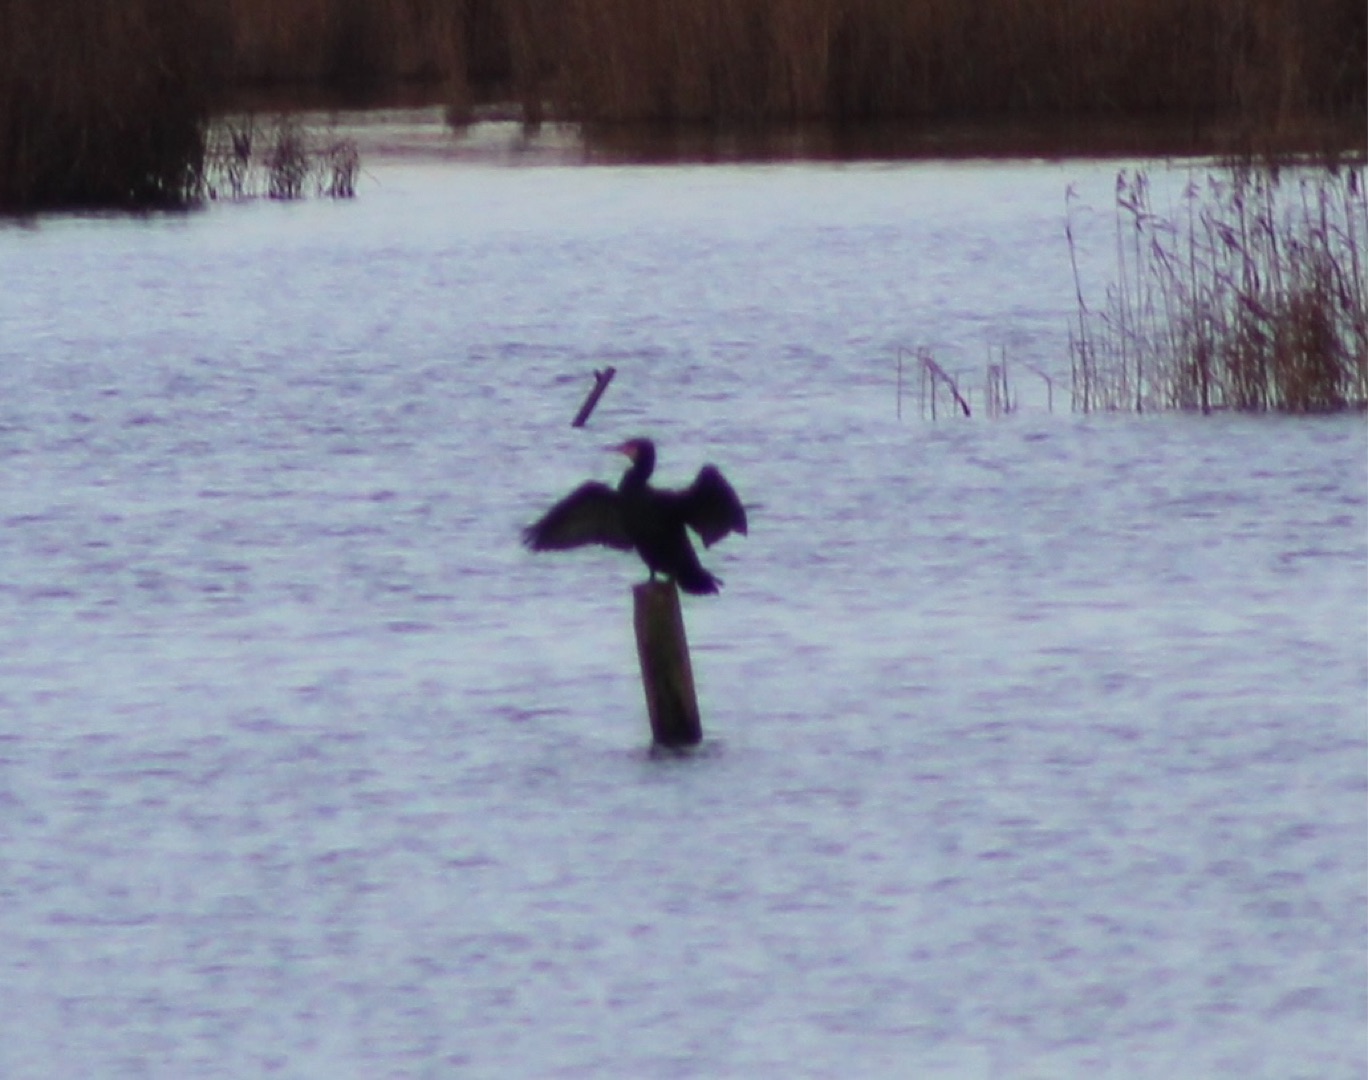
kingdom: Animalia
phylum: Chordata
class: Aves
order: Suliformes
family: Phalacrocoracidae
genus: Phalacrocorax
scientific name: Phalacrocorax carbo
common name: Skarv
